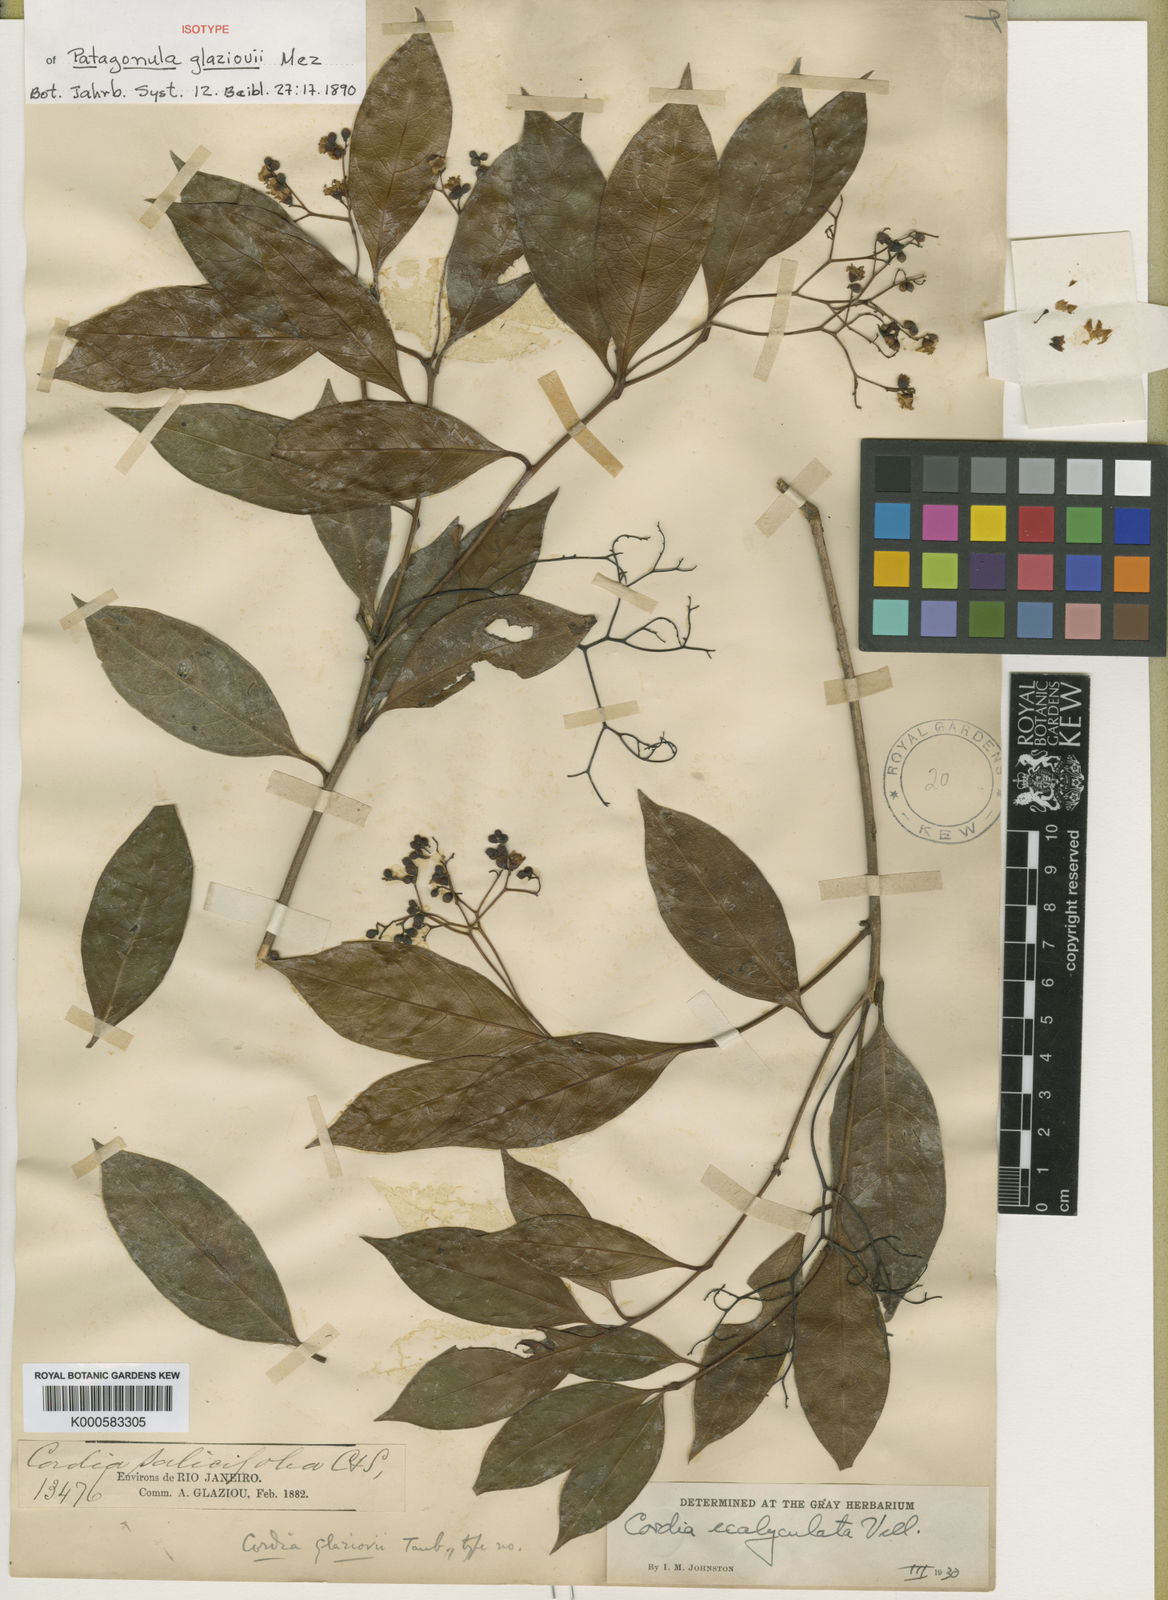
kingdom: Plantae
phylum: Tracheophyta
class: Magnoliopsida
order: Boraginales
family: Cordiaceae
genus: Cordia
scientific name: Cordia ecalyculata
